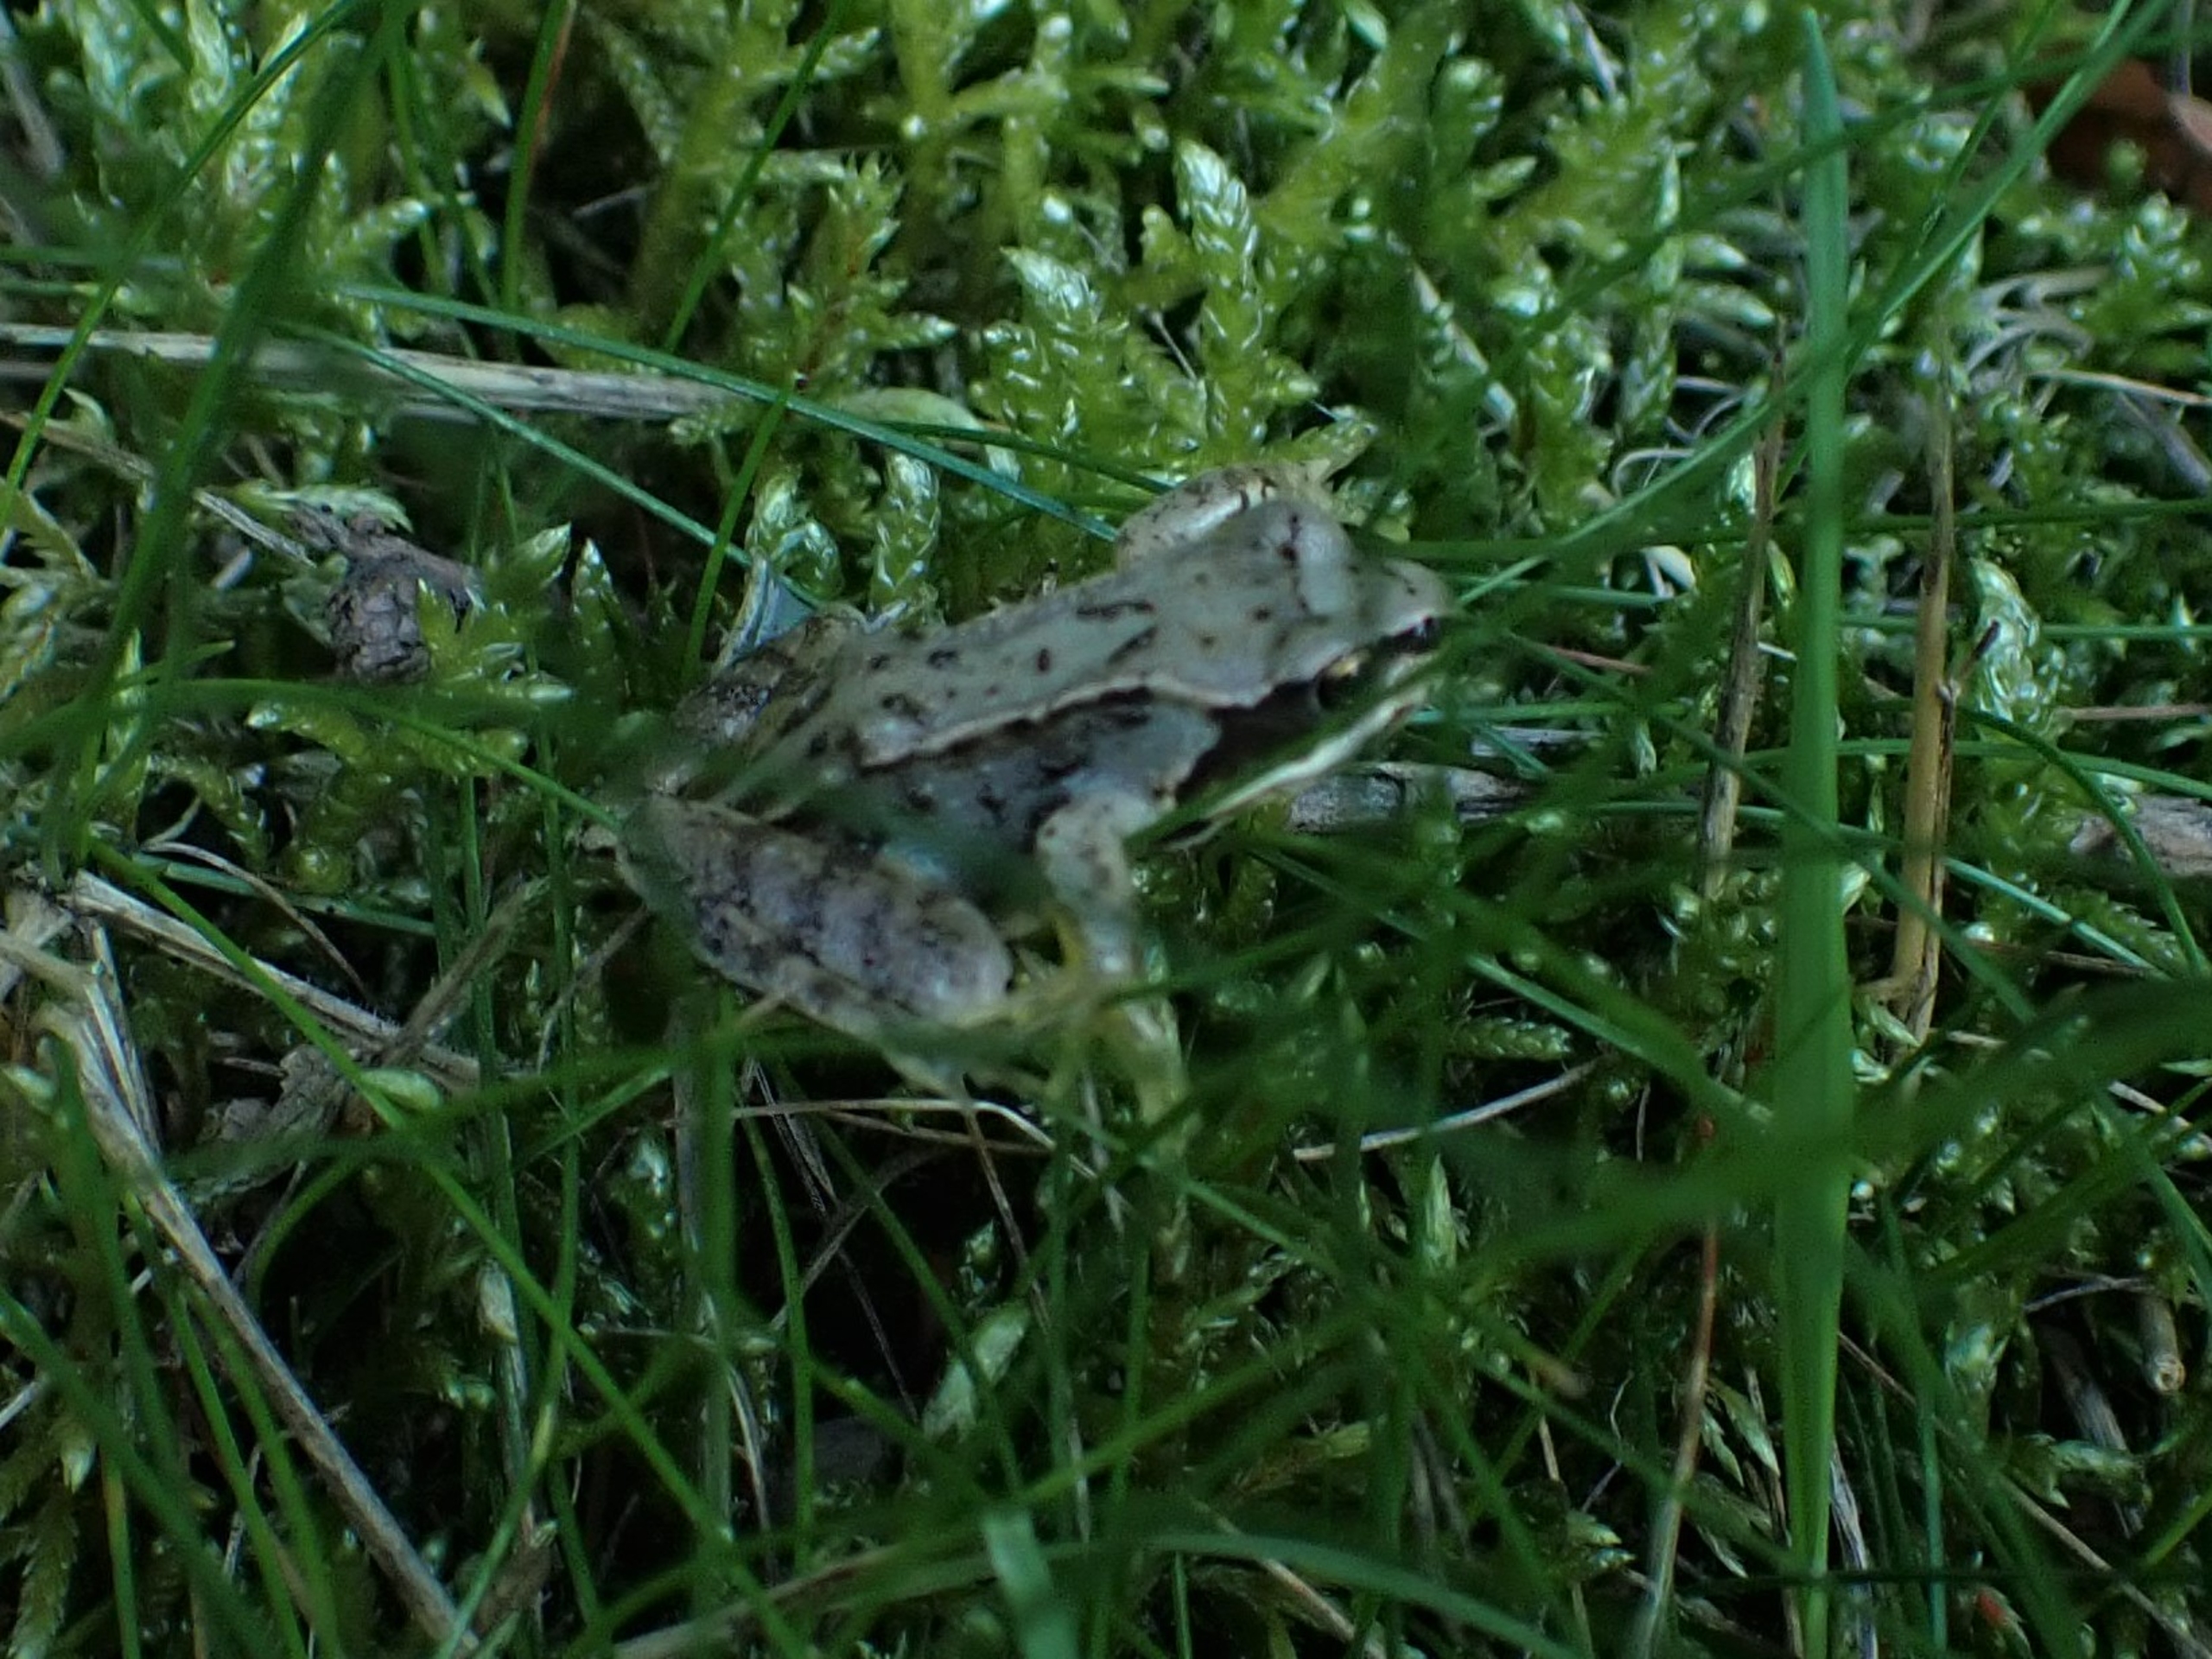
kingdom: Animalia
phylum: Chordata
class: Amphibia
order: Anura
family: Ranidae
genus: Rana
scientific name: Rana temporaria
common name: Butsnudet frø
